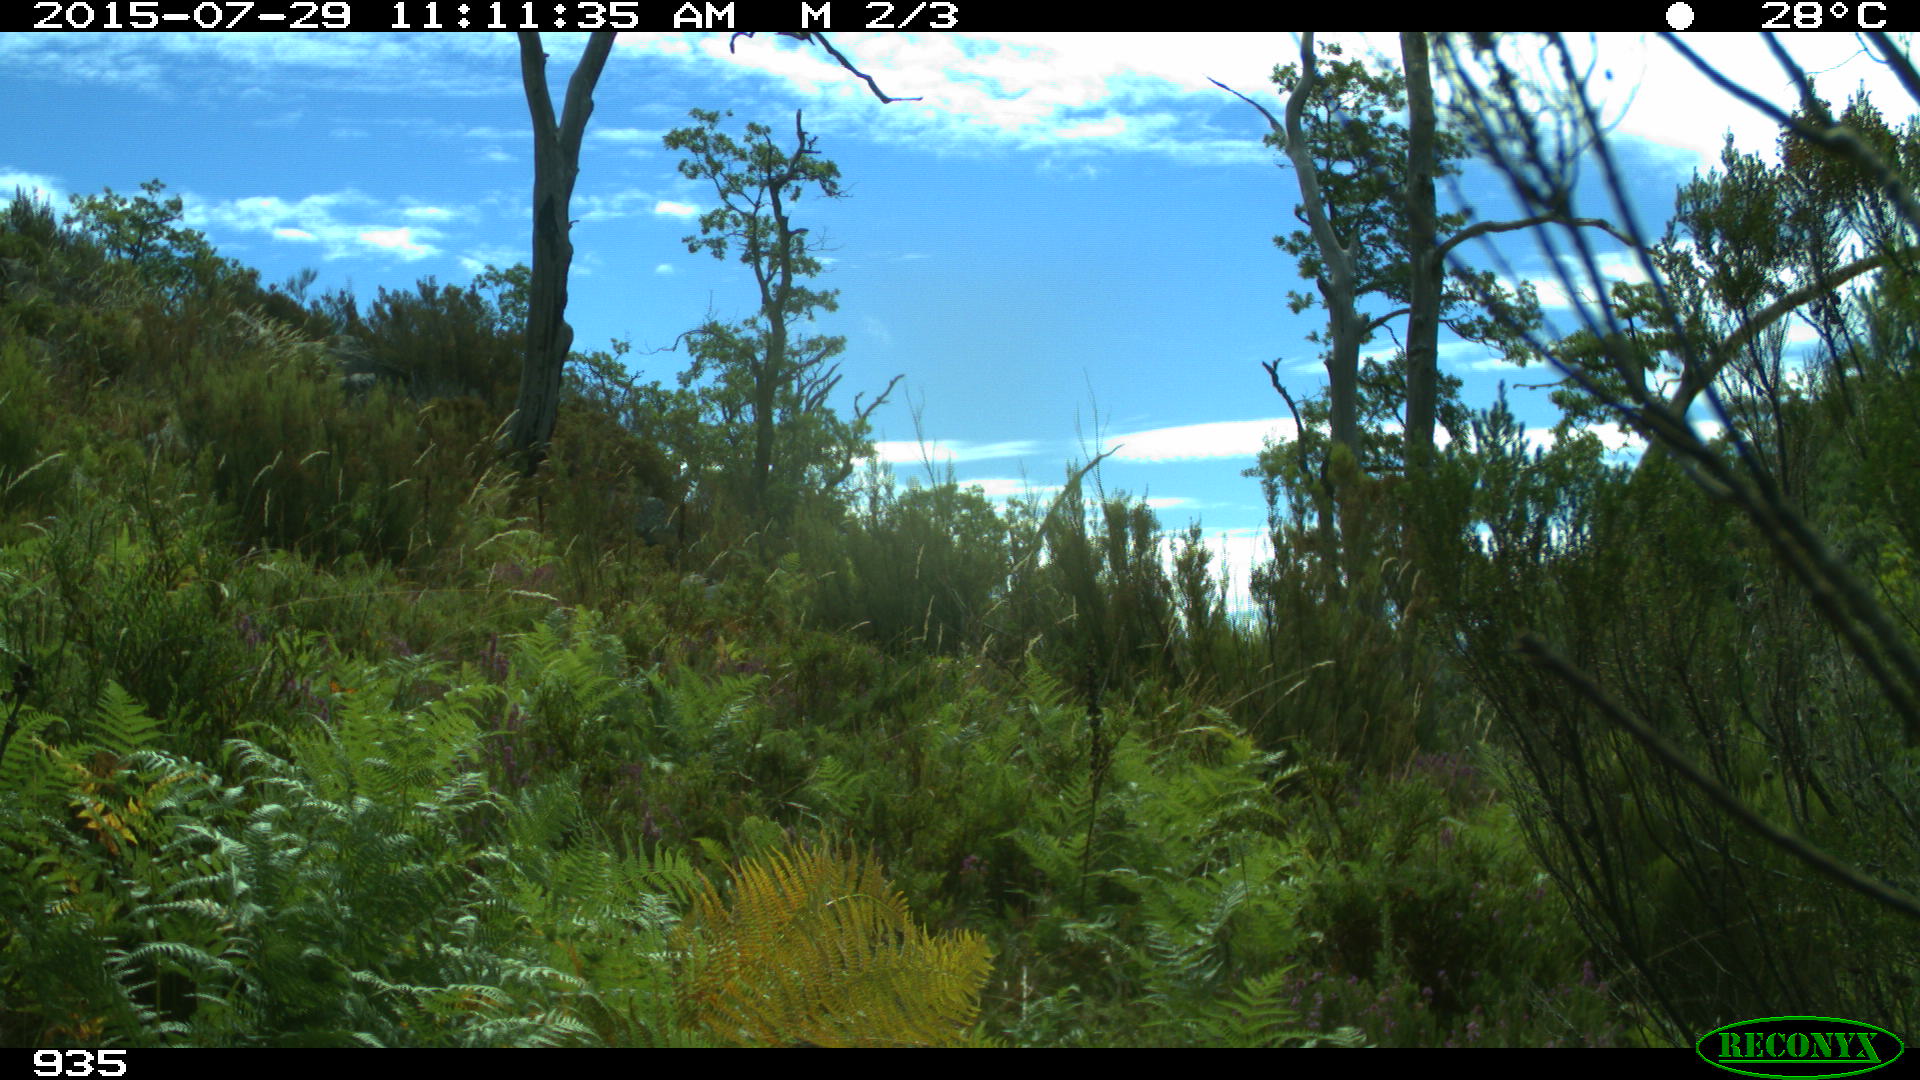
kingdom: Animalia
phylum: Chordata
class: Mammalia
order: Artiodactyla
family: Bovidae
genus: Bos
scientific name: Bos taurus
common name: Domesticated cattle
